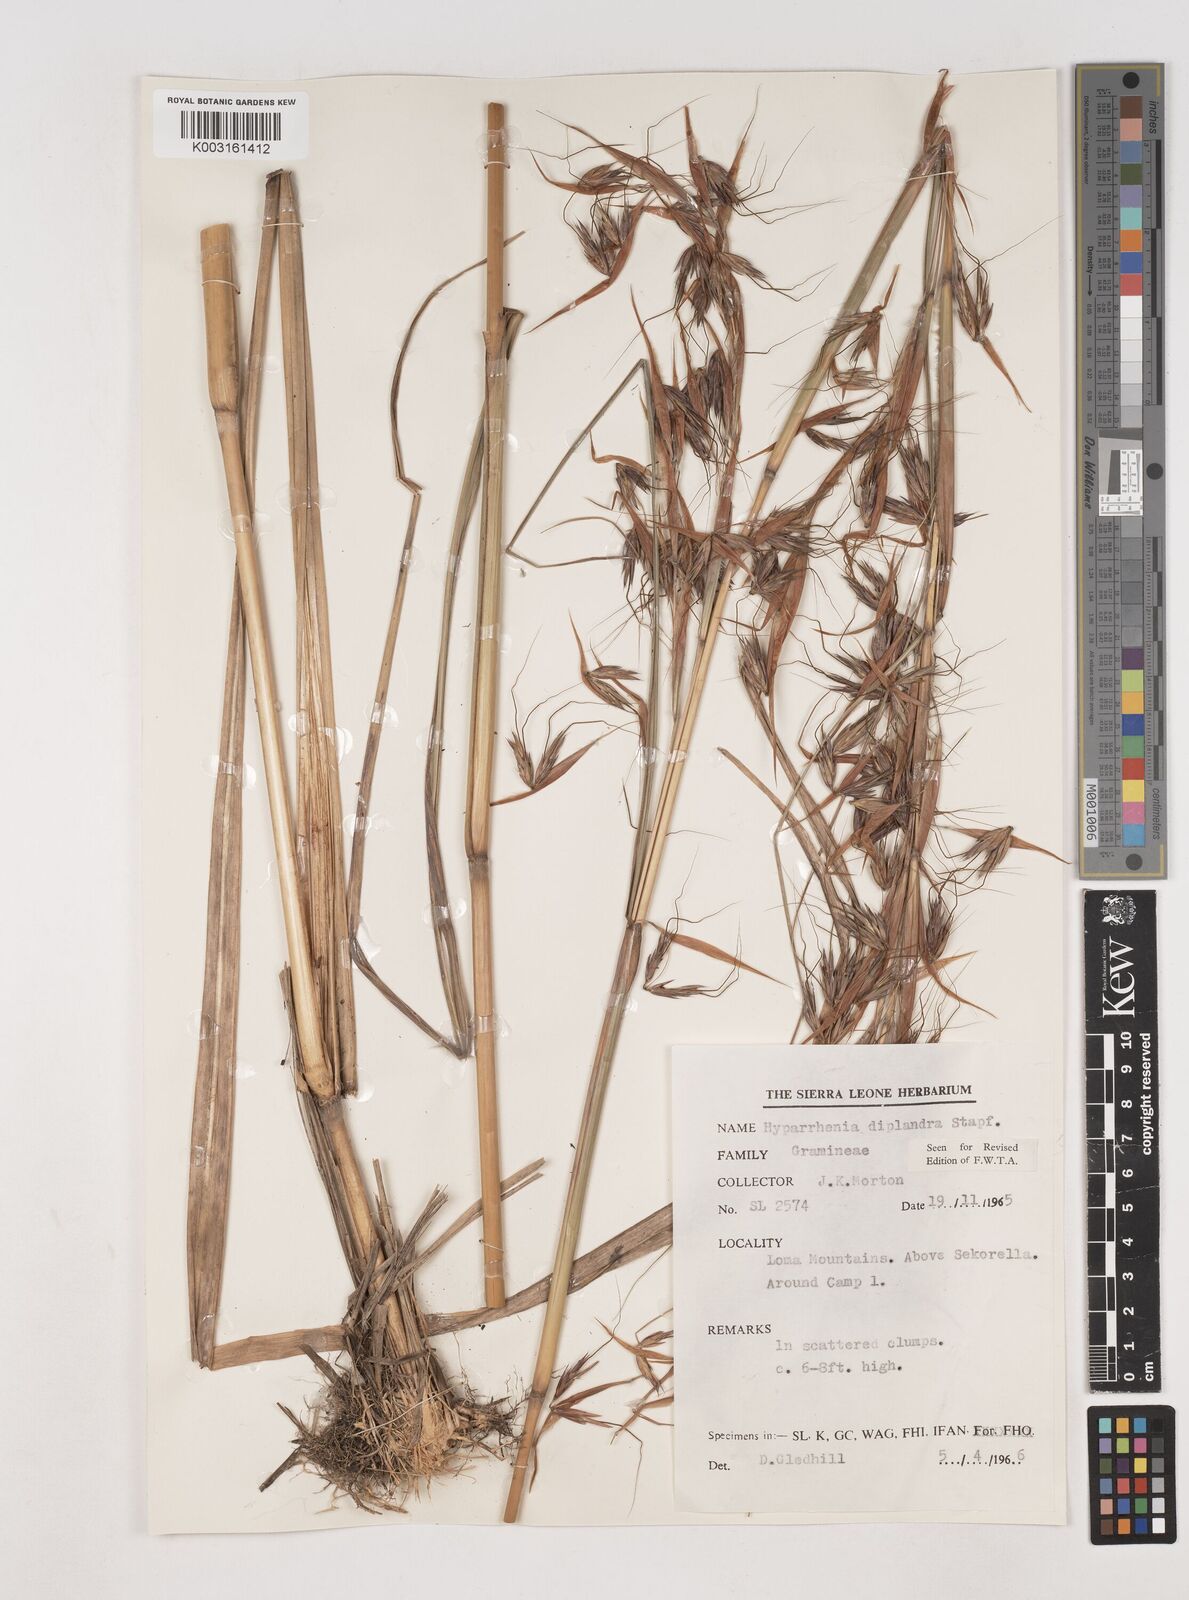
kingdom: Plantae
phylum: Tracheophyta
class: Liliopsida
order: Poales
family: Poaceae
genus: Hyparrhenia
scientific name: Hyparrhenia diplandra
